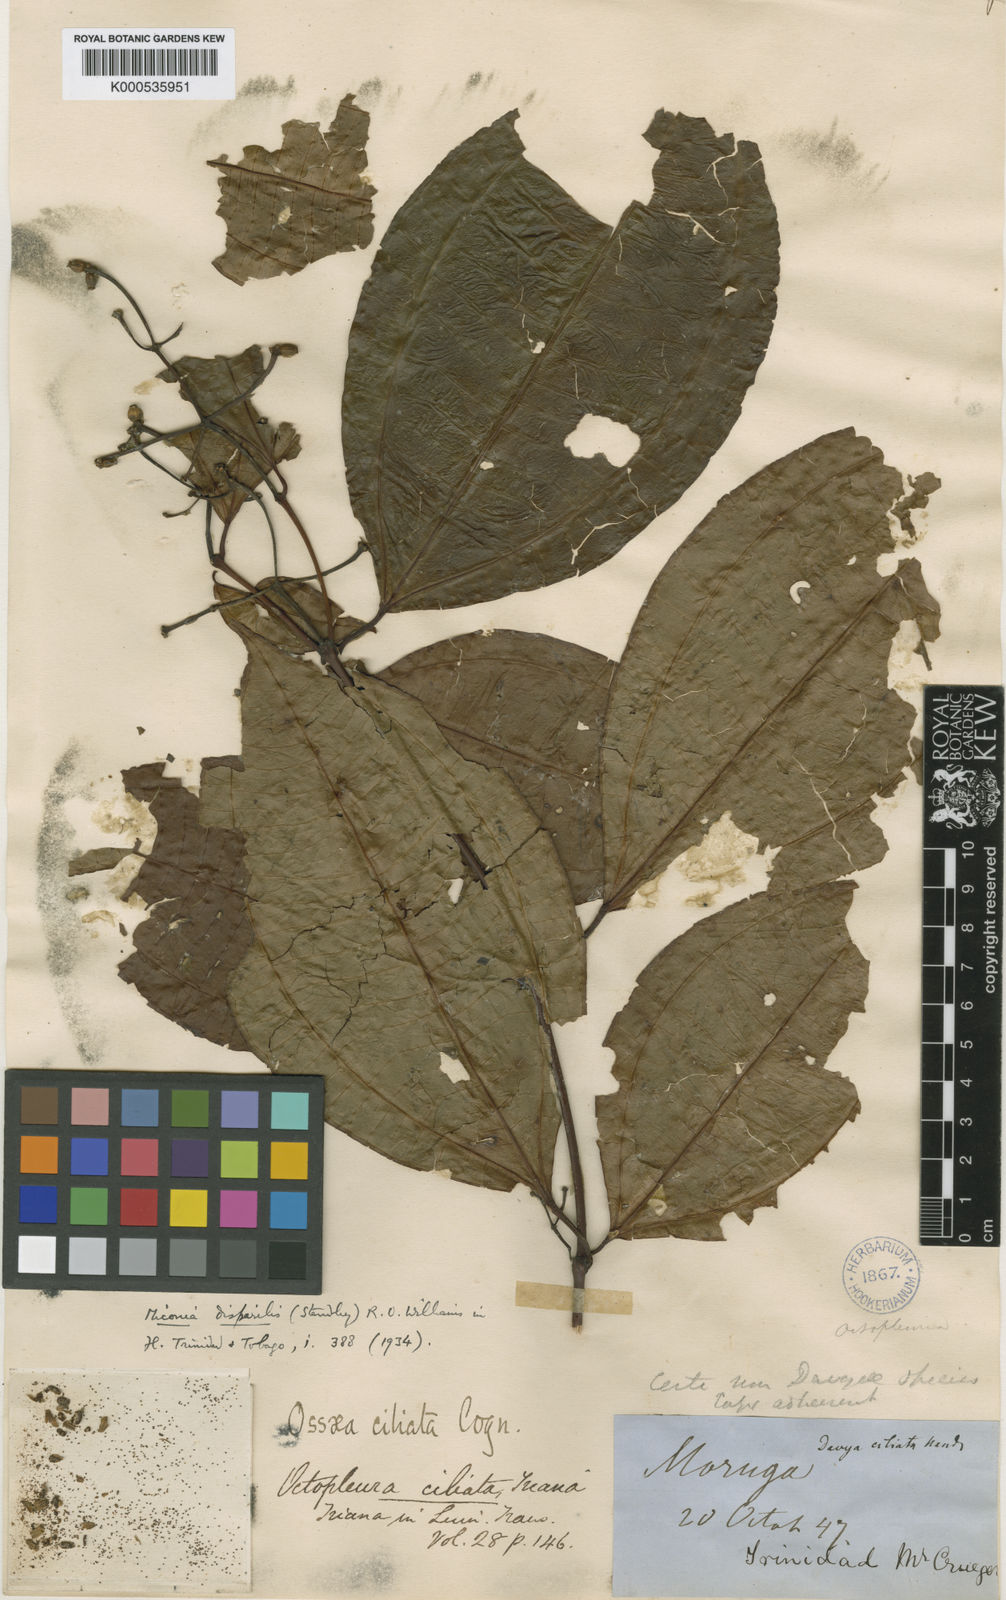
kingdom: Plantae
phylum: Tracheophyta
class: Magnoliopsida
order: Myrtales
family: Melastomataceae
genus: Miconia
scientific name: Miconia lateriflora
